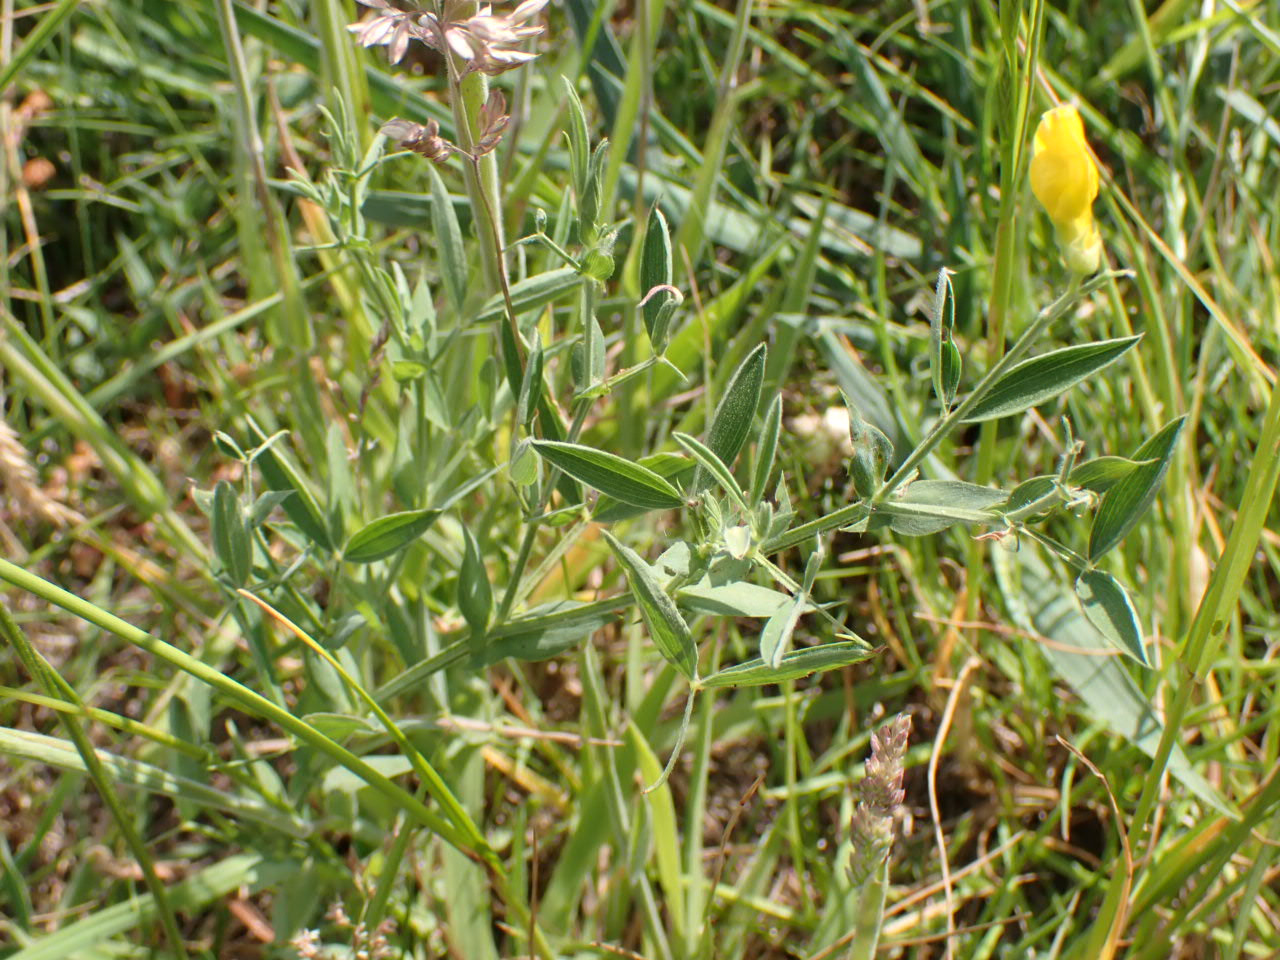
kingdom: Plantae
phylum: Tracheophyta
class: Magnoliopsida
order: Fabales
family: Fabaceae
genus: Lathyrus
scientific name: Lathyrus pratensis
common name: Gul fladbælg
